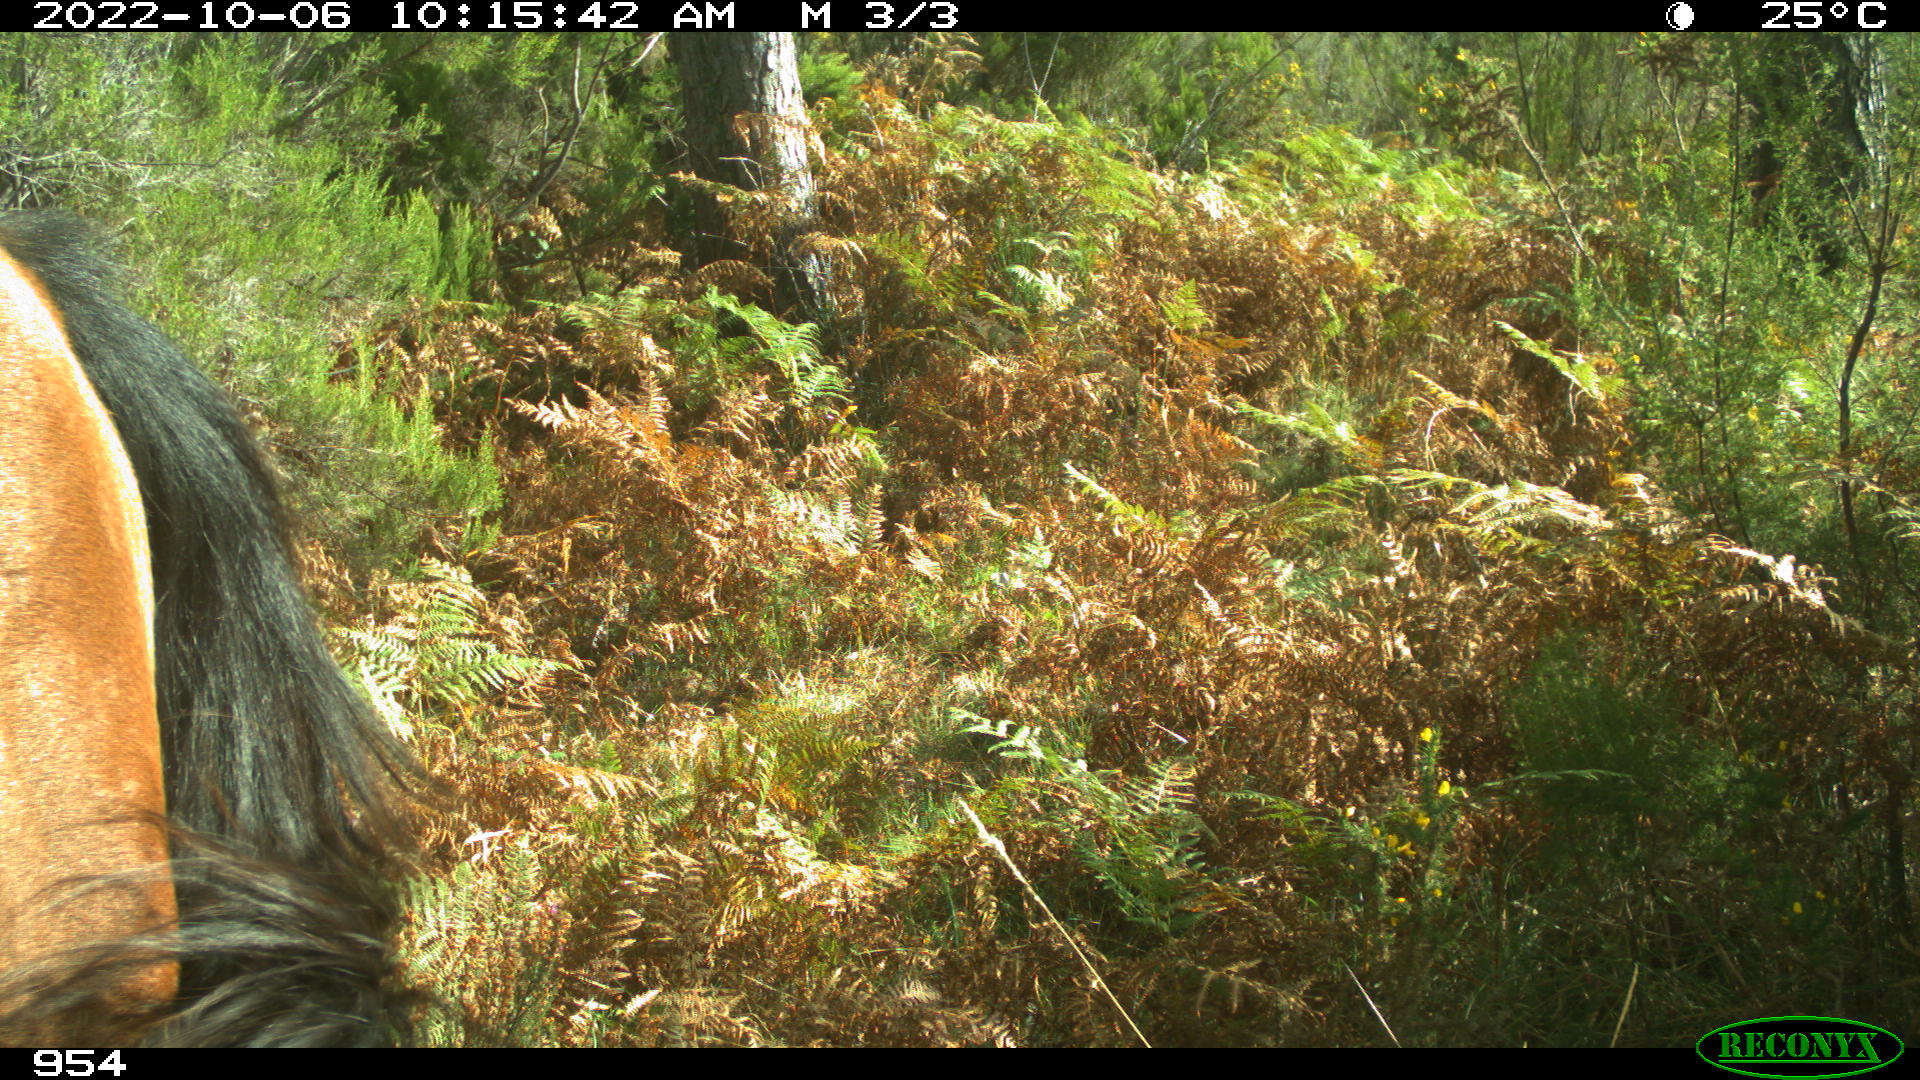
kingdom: Animalia
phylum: Chordata
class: Mammalia
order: Perissodactyla
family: Equidae
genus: Equus
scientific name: Equus caballus
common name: Horse
